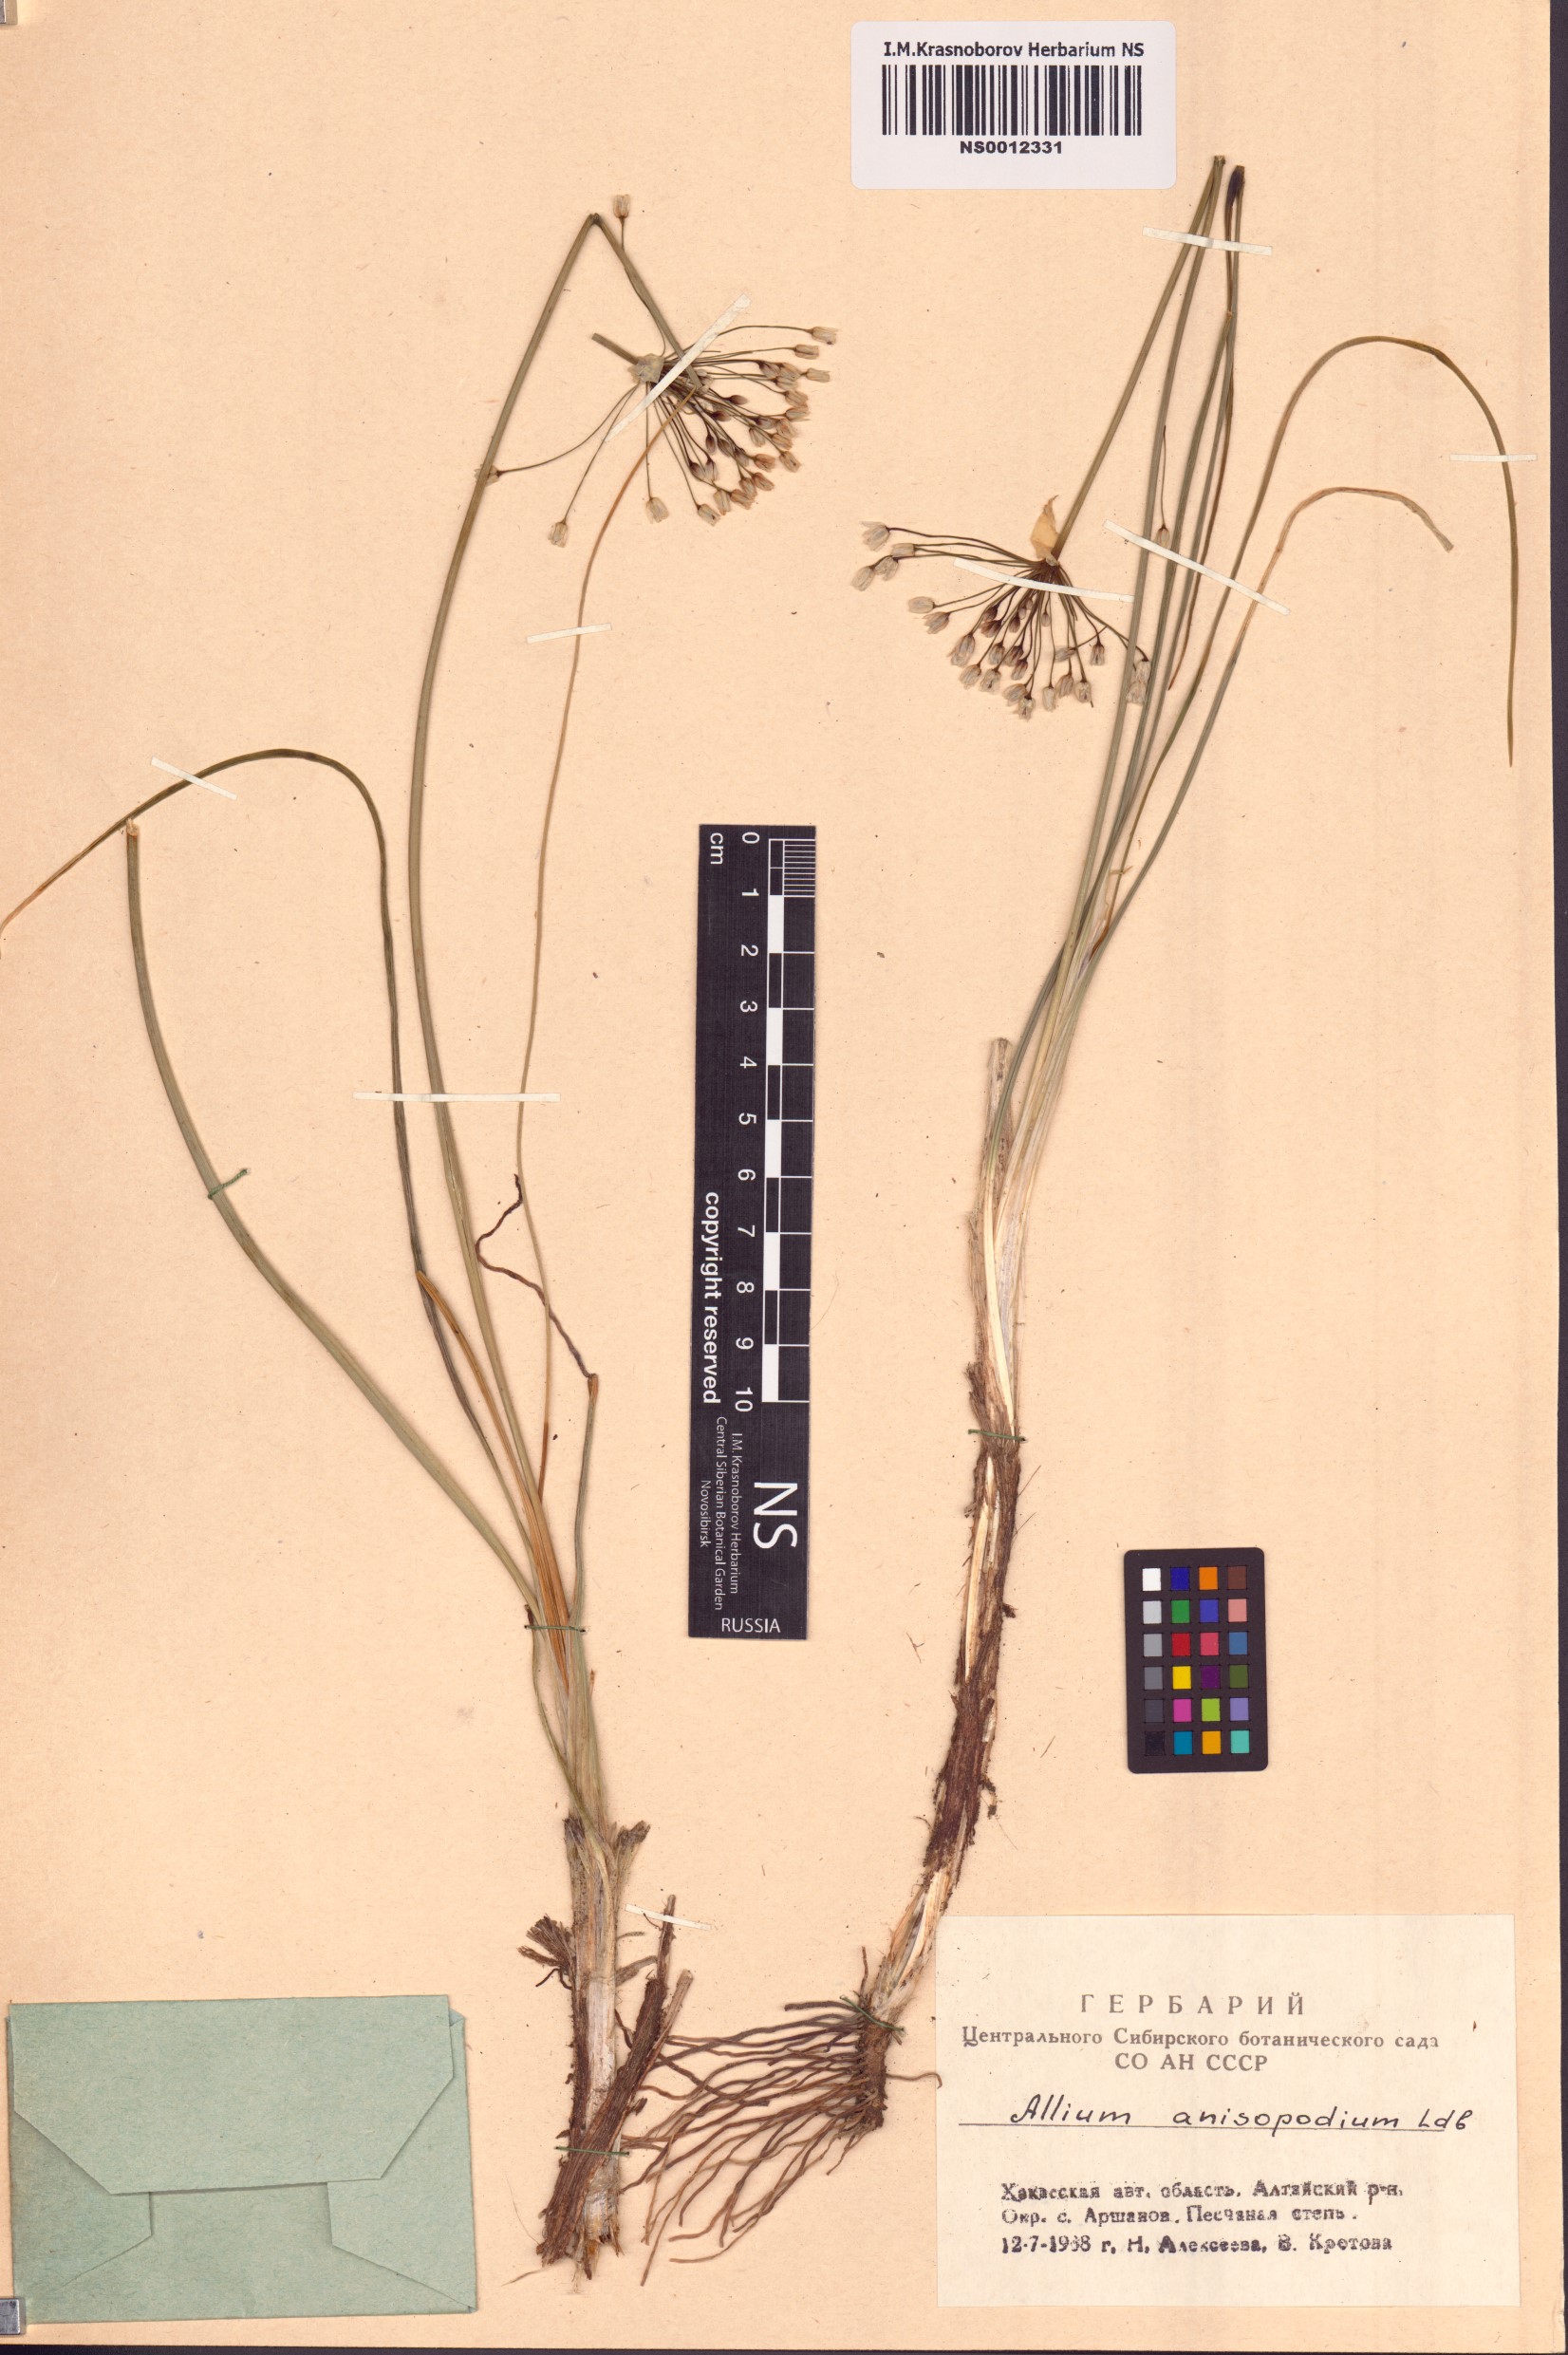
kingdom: Plantae
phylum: Tracheophyta
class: Liliopsida
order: Asparagales
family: Amaryllidaceae
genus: Allium
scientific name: Allium anisopodium
